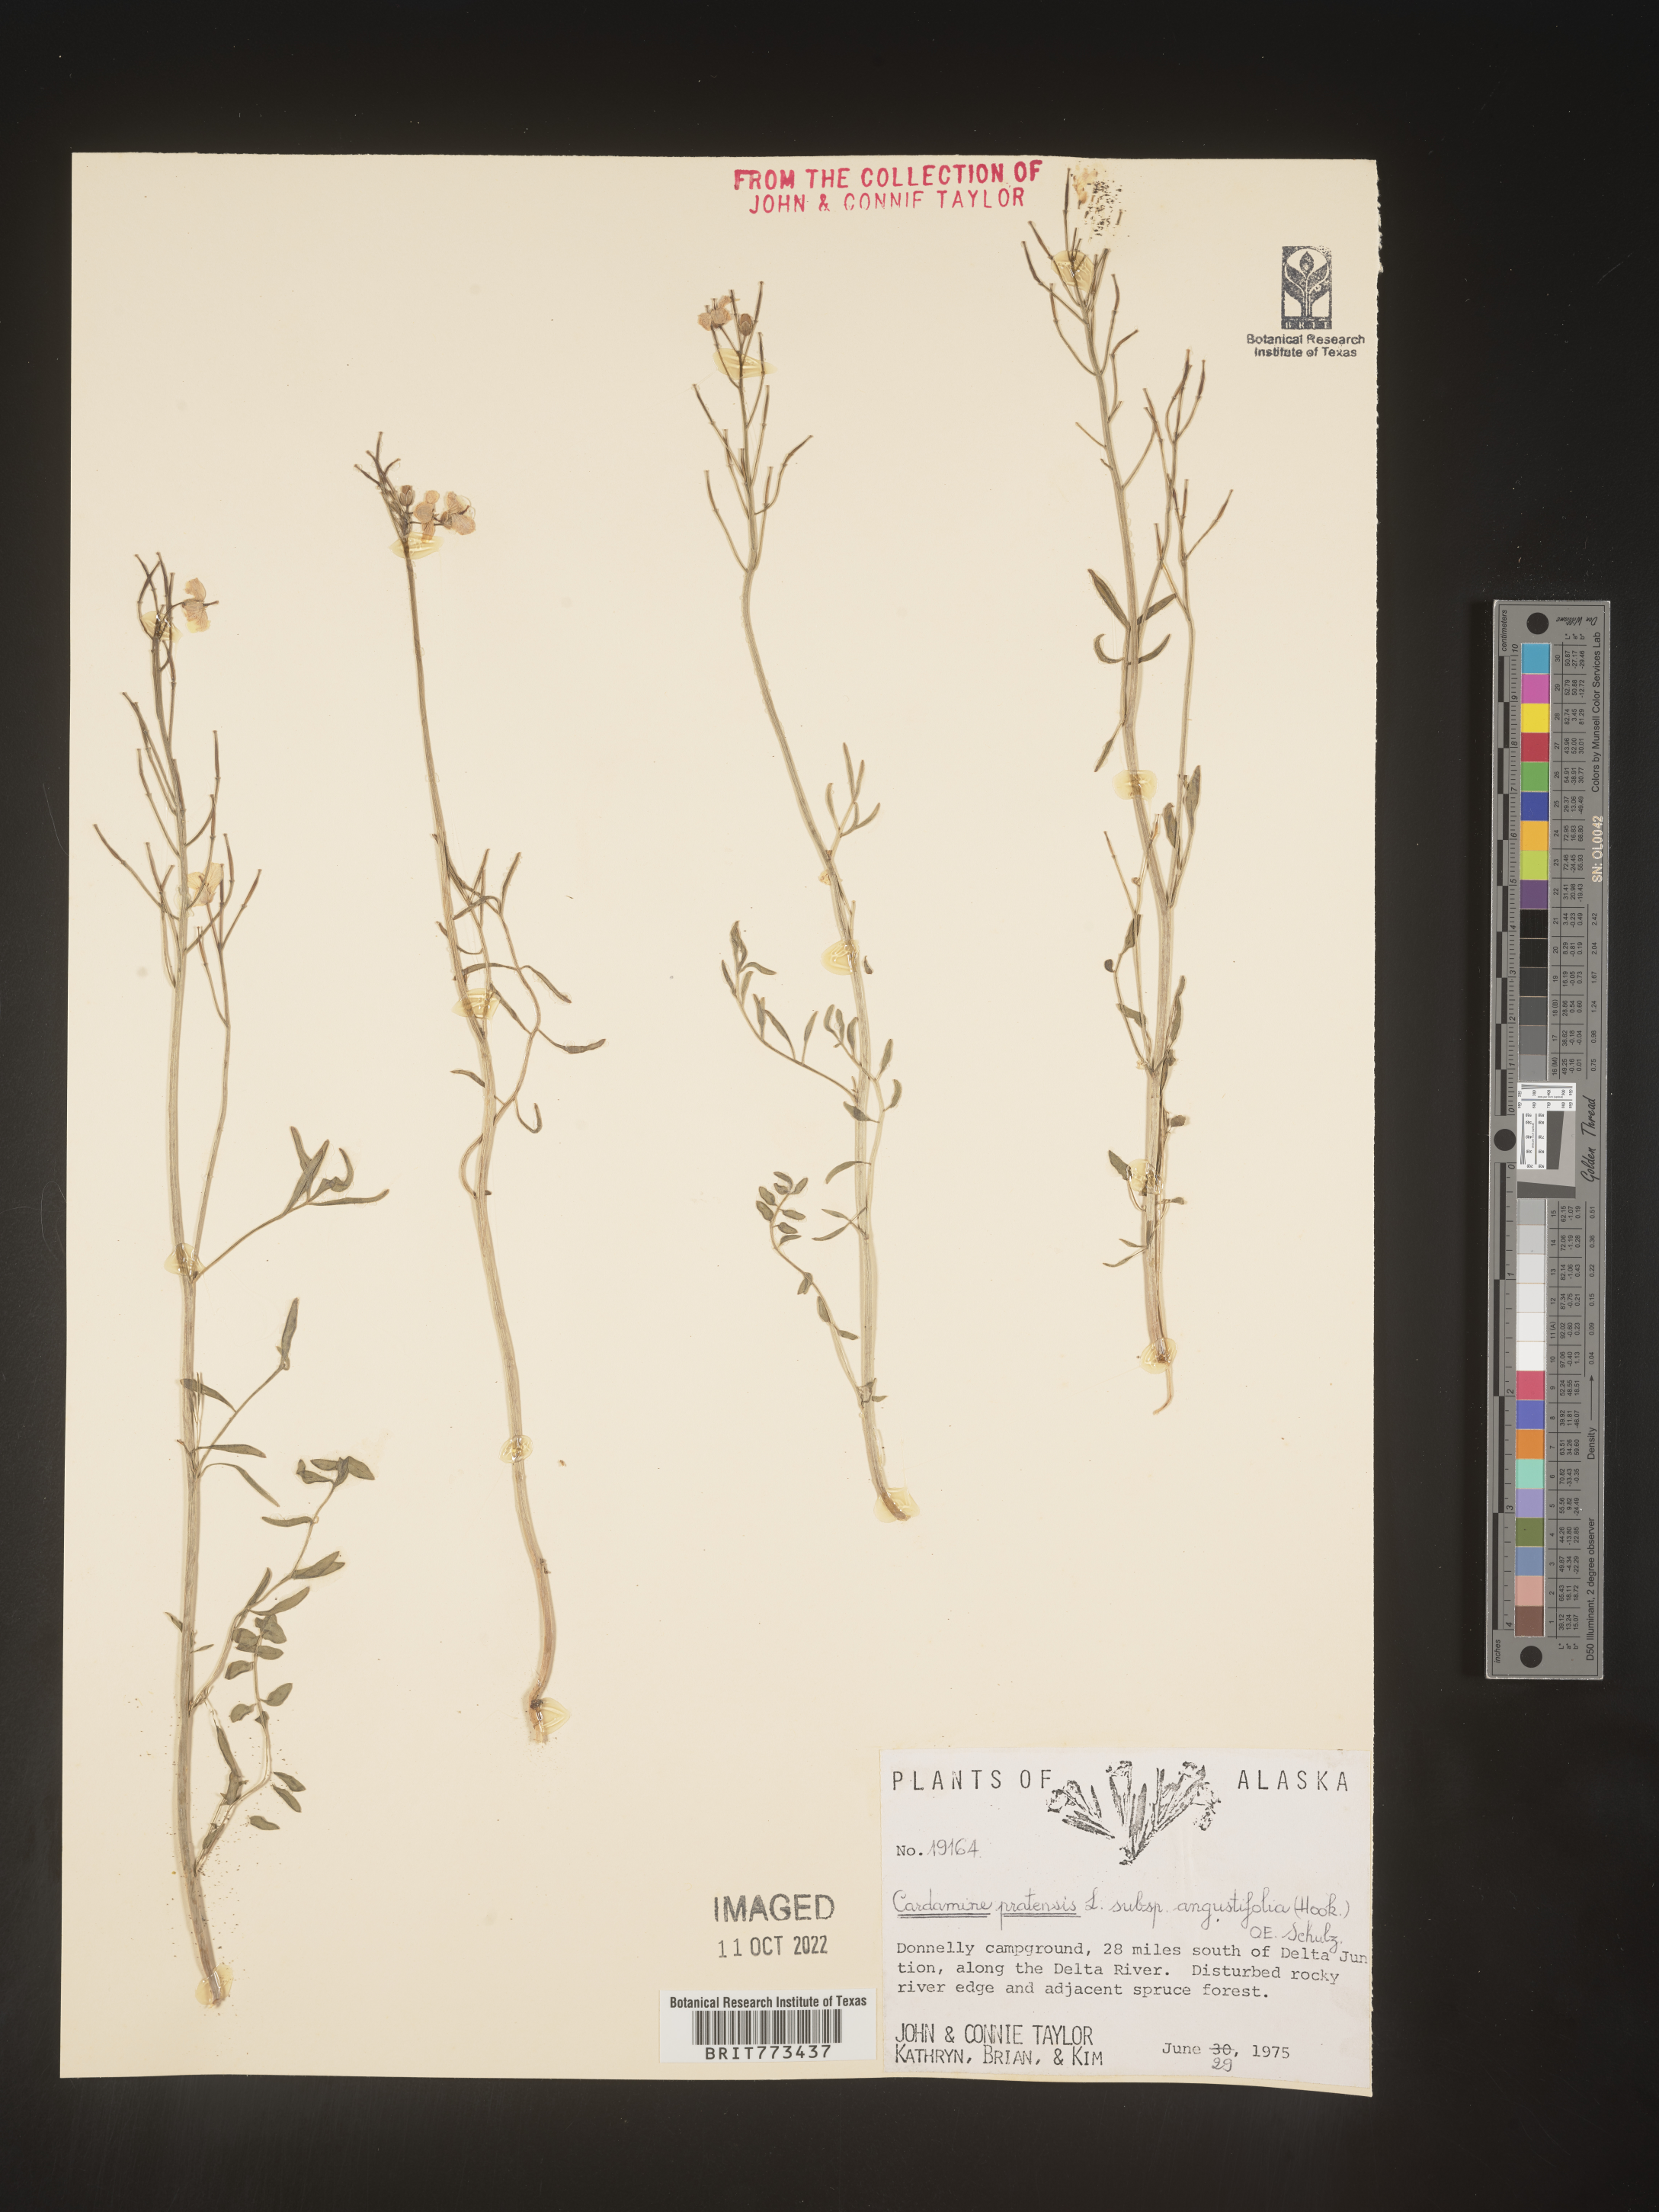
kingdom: Plantae
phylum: Tracheophyta
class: Magnoliopsida
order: Brassicales
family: Brassicaceae
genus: Cardamine
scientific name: Cardamine
